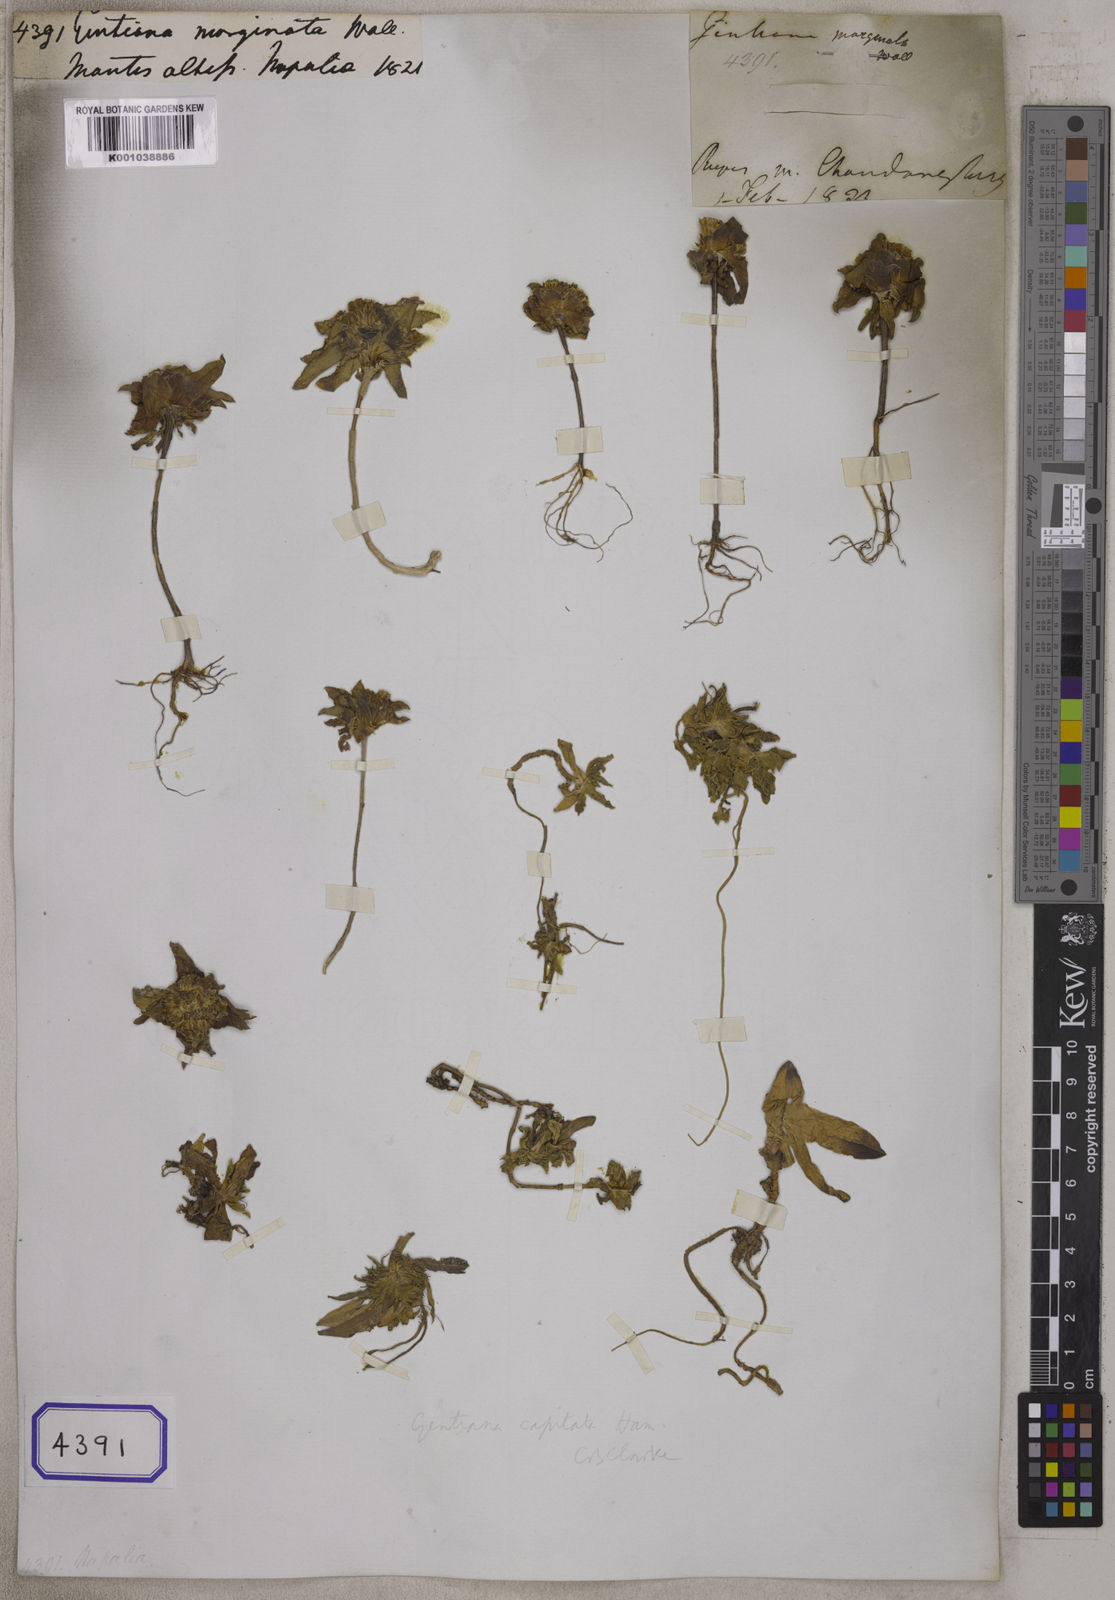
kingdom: Plantae
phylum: Tracheophyta
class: Magnoliopsida
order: Gentianales
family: Gentianaceae
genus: Gentiana
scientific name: Gentiana capitata
